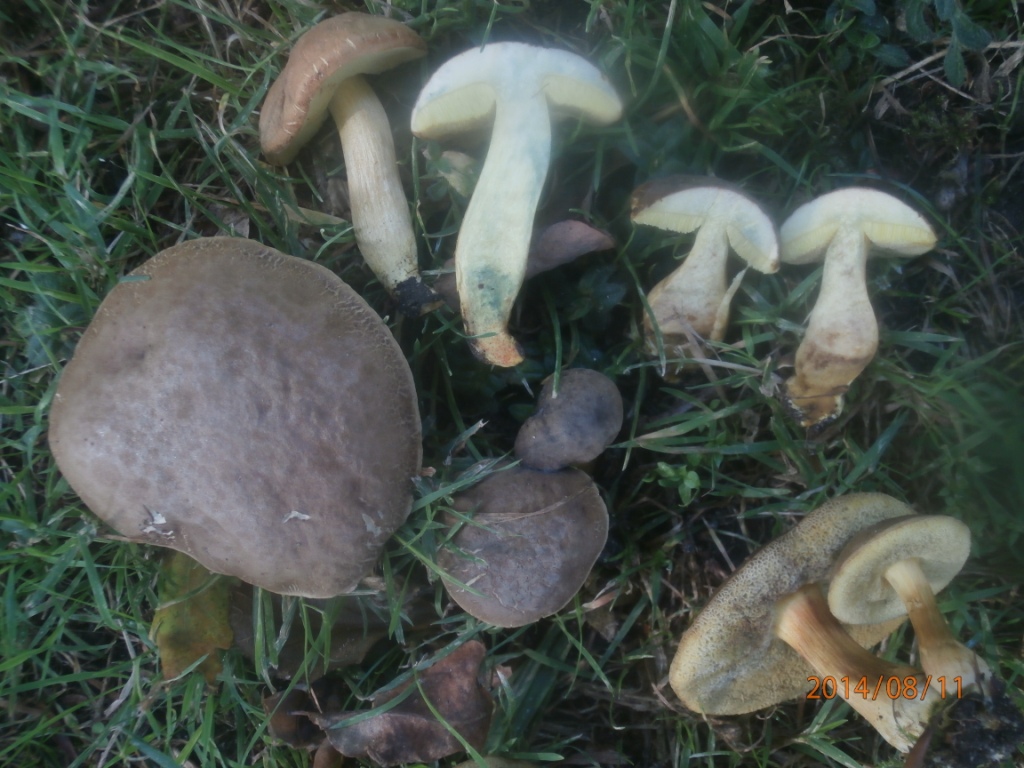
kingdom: Fungi
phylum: Basidiomycota
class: Agaricomycetes
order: Boletales
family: Boletaceae
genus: Xerocomellus
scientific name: Xerocomellus pruinatus
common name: dugget rørhat
